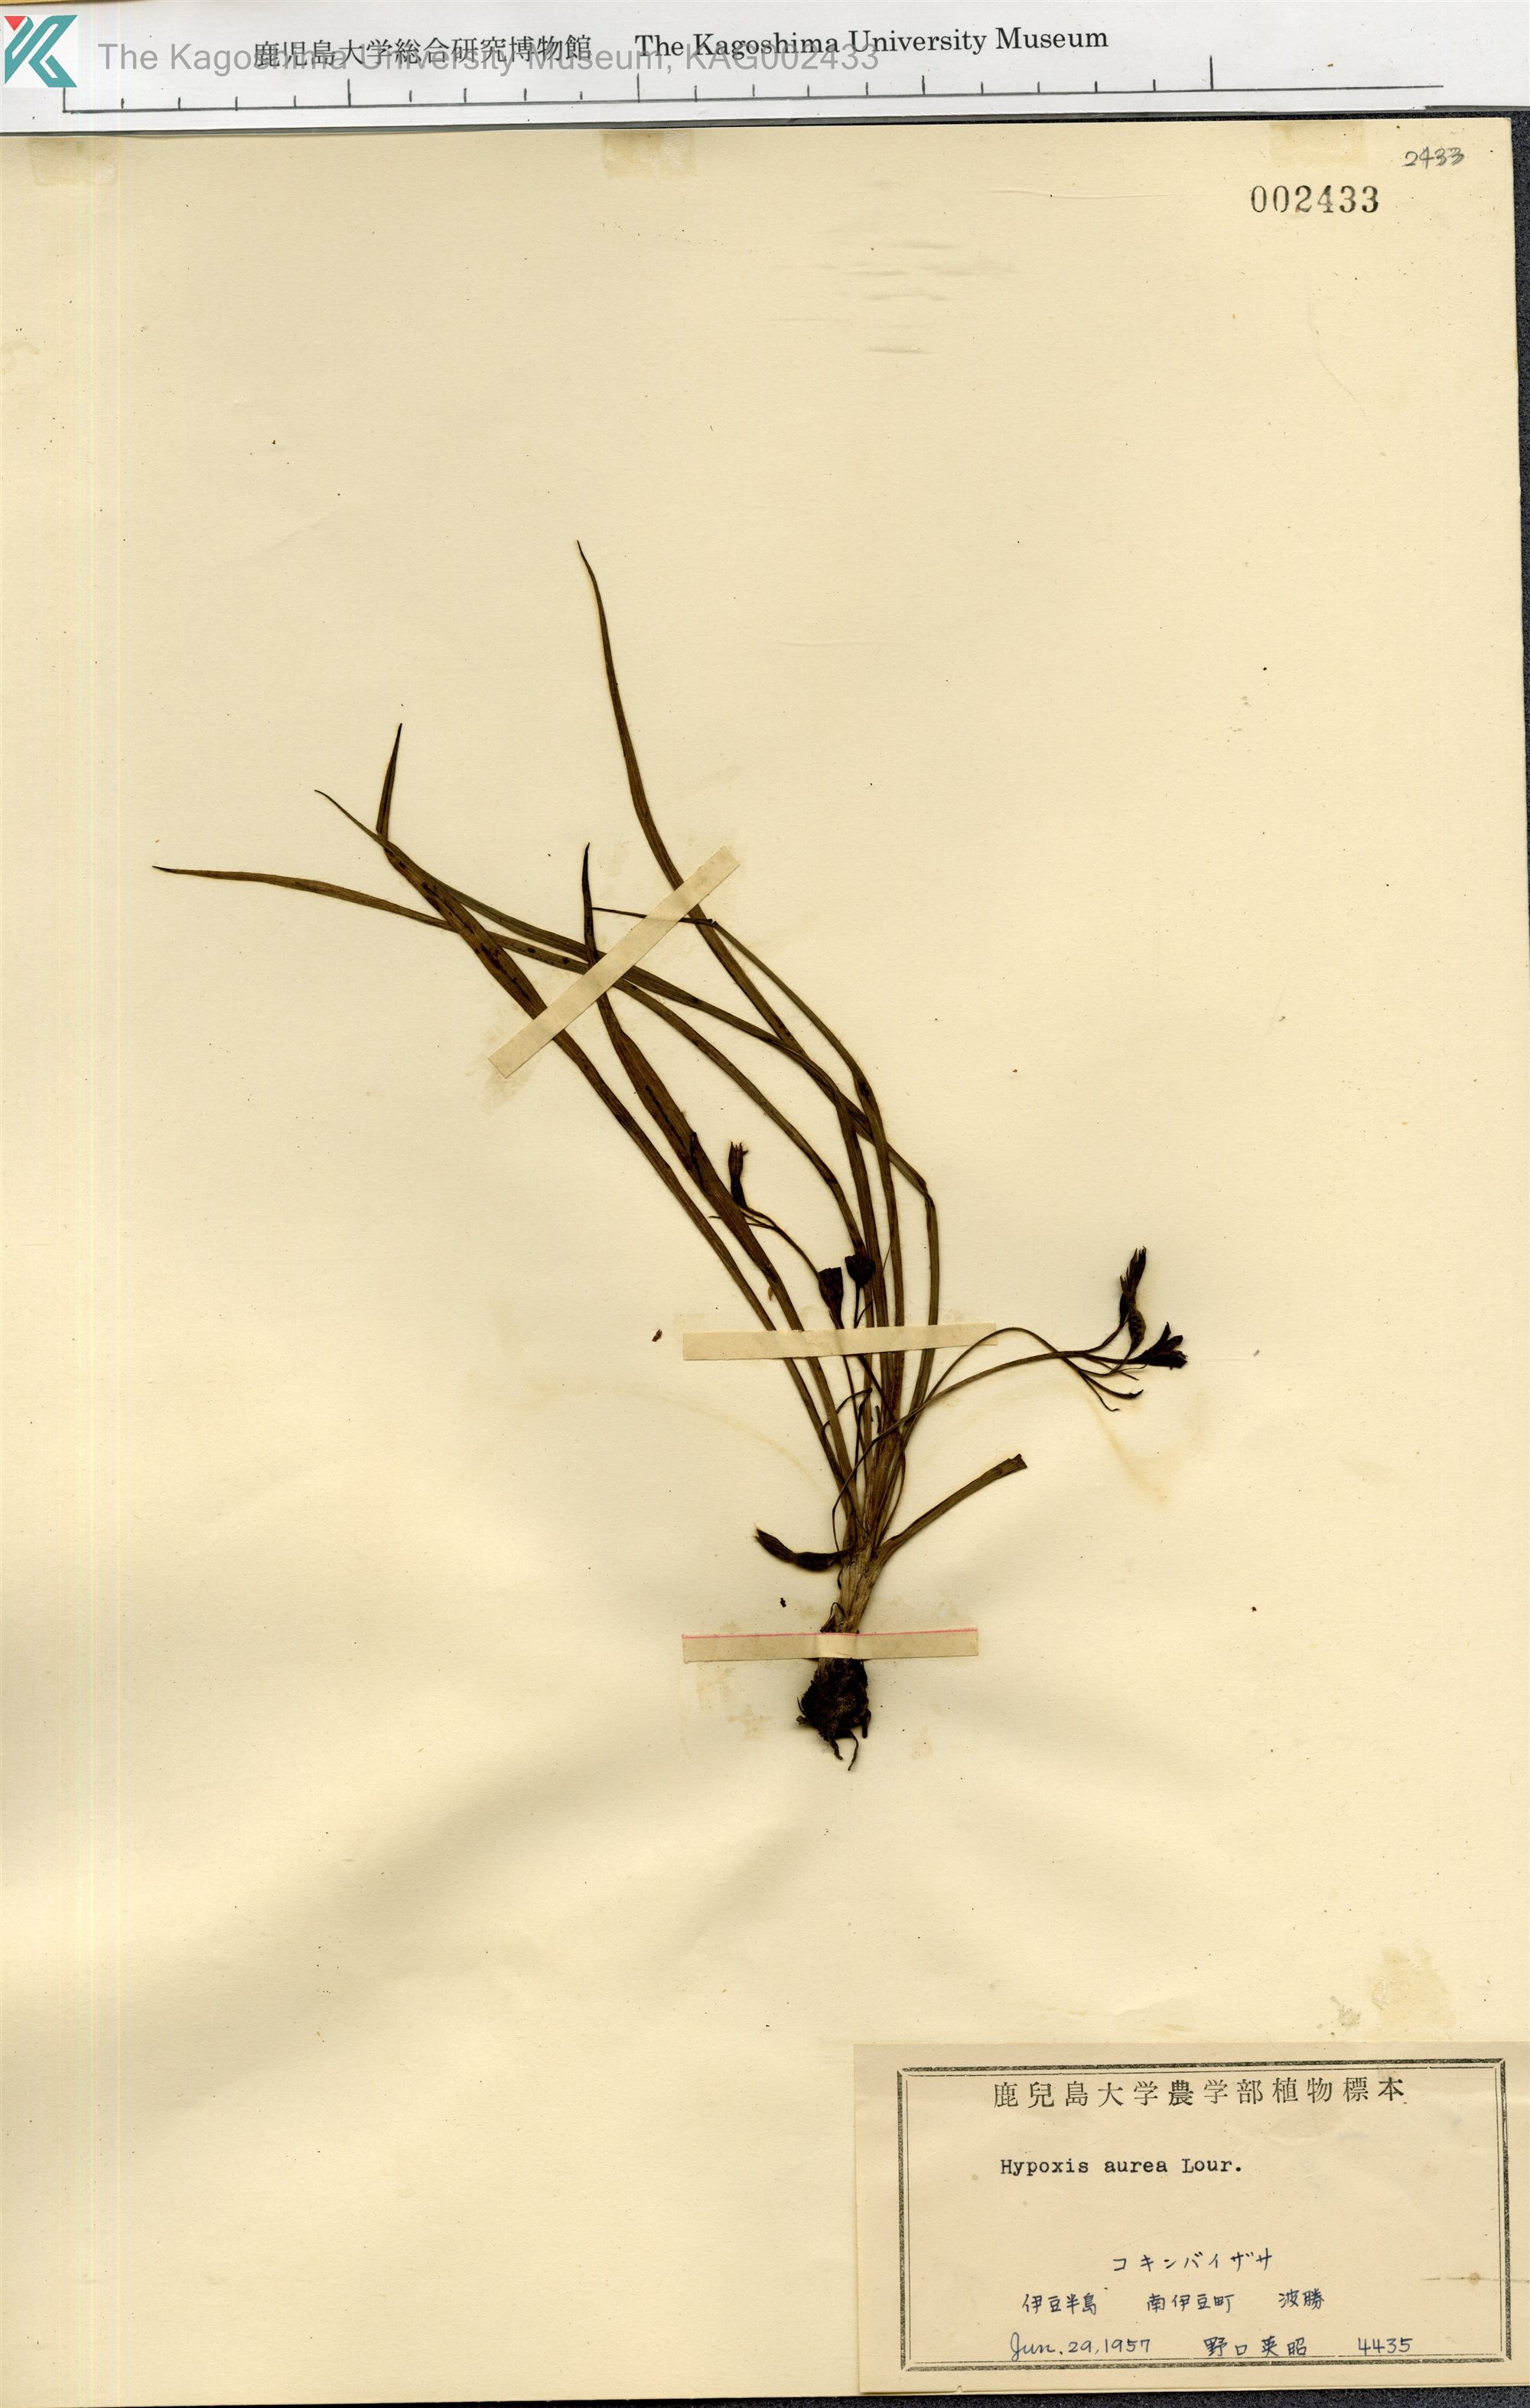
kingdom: Plantae
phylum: Tracheophyta
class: Liliopsida
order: Asparagales
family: Hypoxidaceae
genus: Hypoxis
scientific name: Hypoxis aurea
